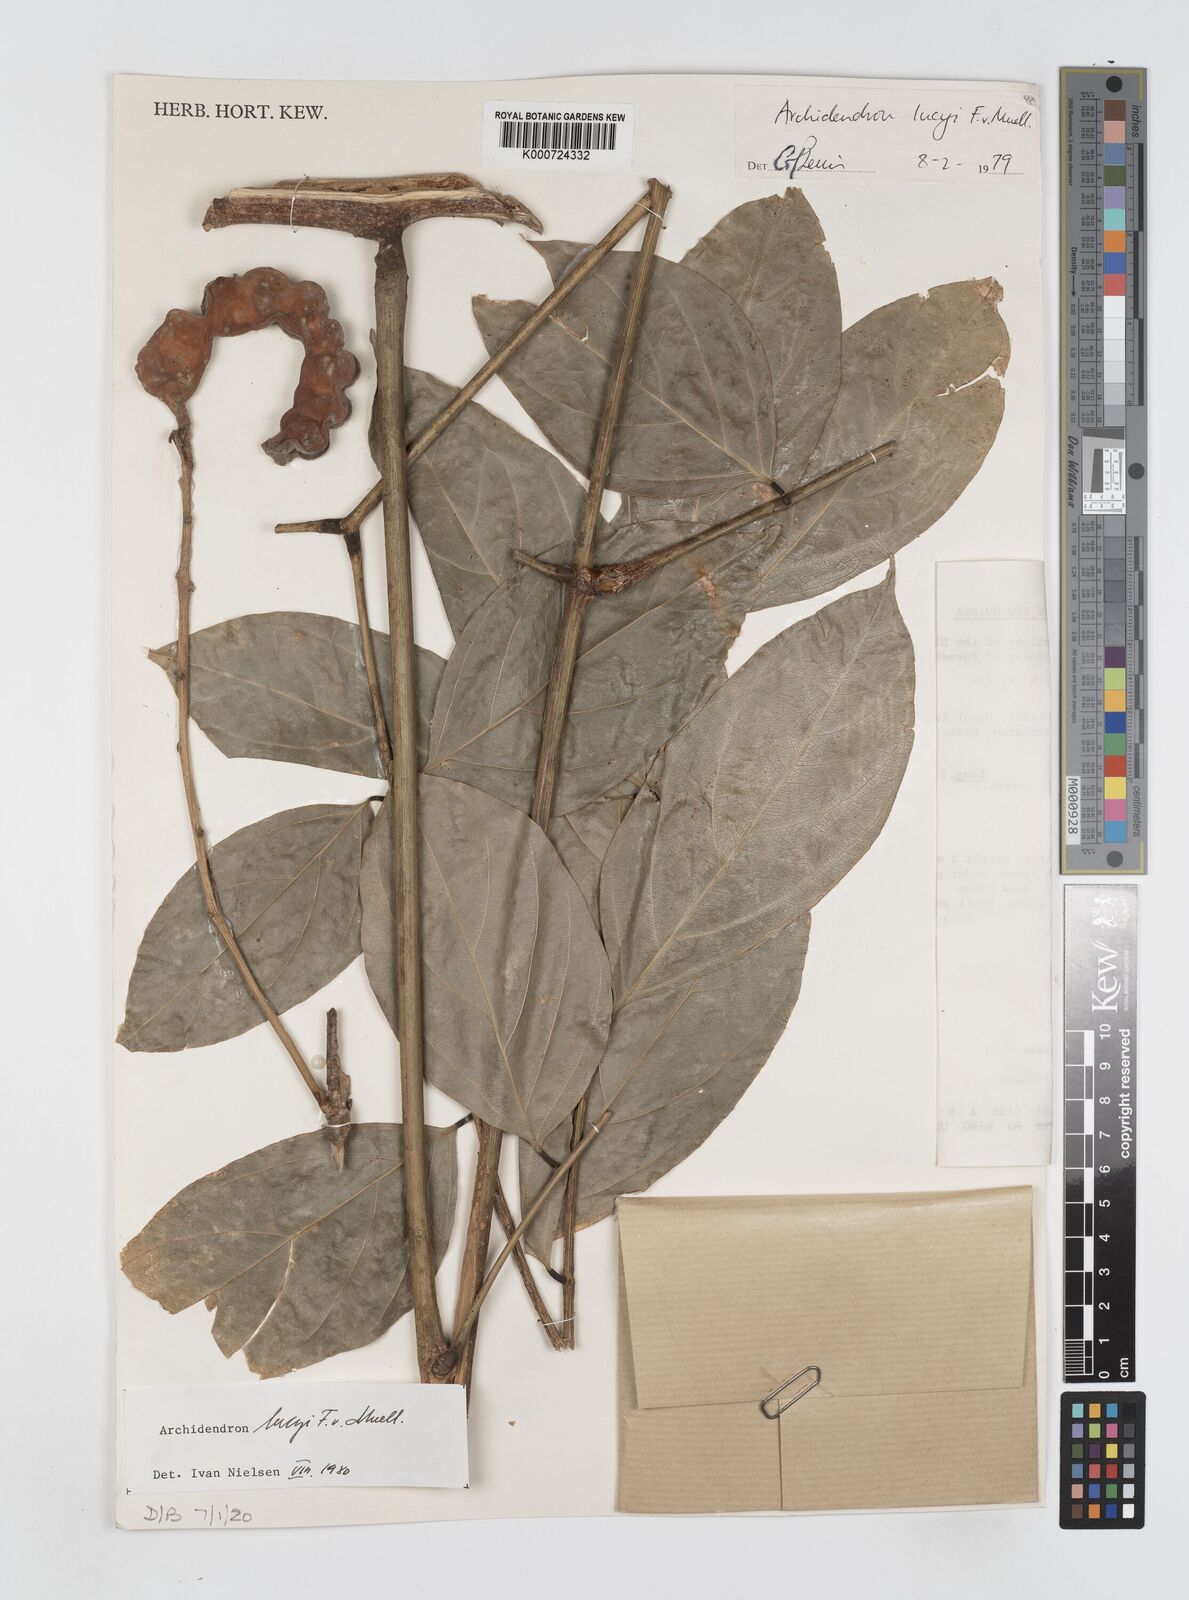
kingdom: Plantae
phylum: Tracheophyta
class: Magnoliopsida
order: Fabales
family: Fabaceae
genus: Archidendron
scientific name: Archidendron lucyi
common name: Scarlet bean
